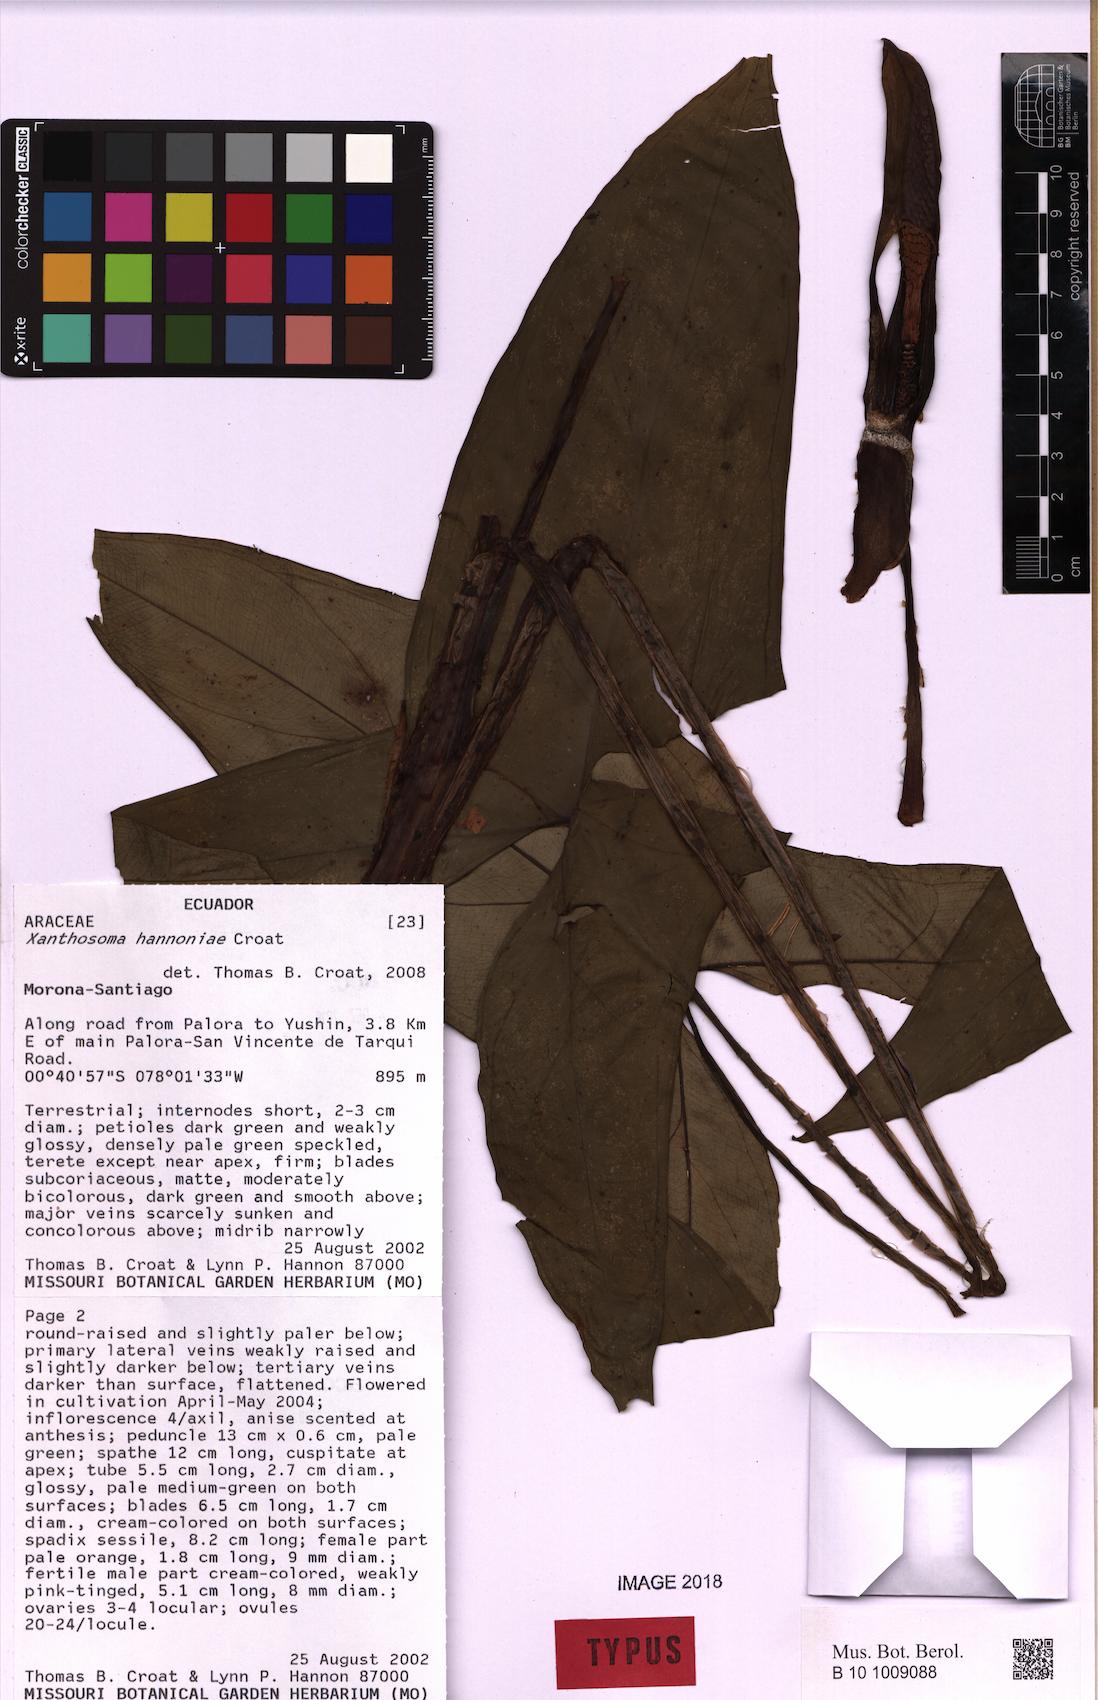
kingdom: Plantae
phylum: Tracheophyta
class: Liliopsida
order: Alismatales
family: Araceae
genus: Xanthosoma
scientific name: Xanthosoma hannoniae
